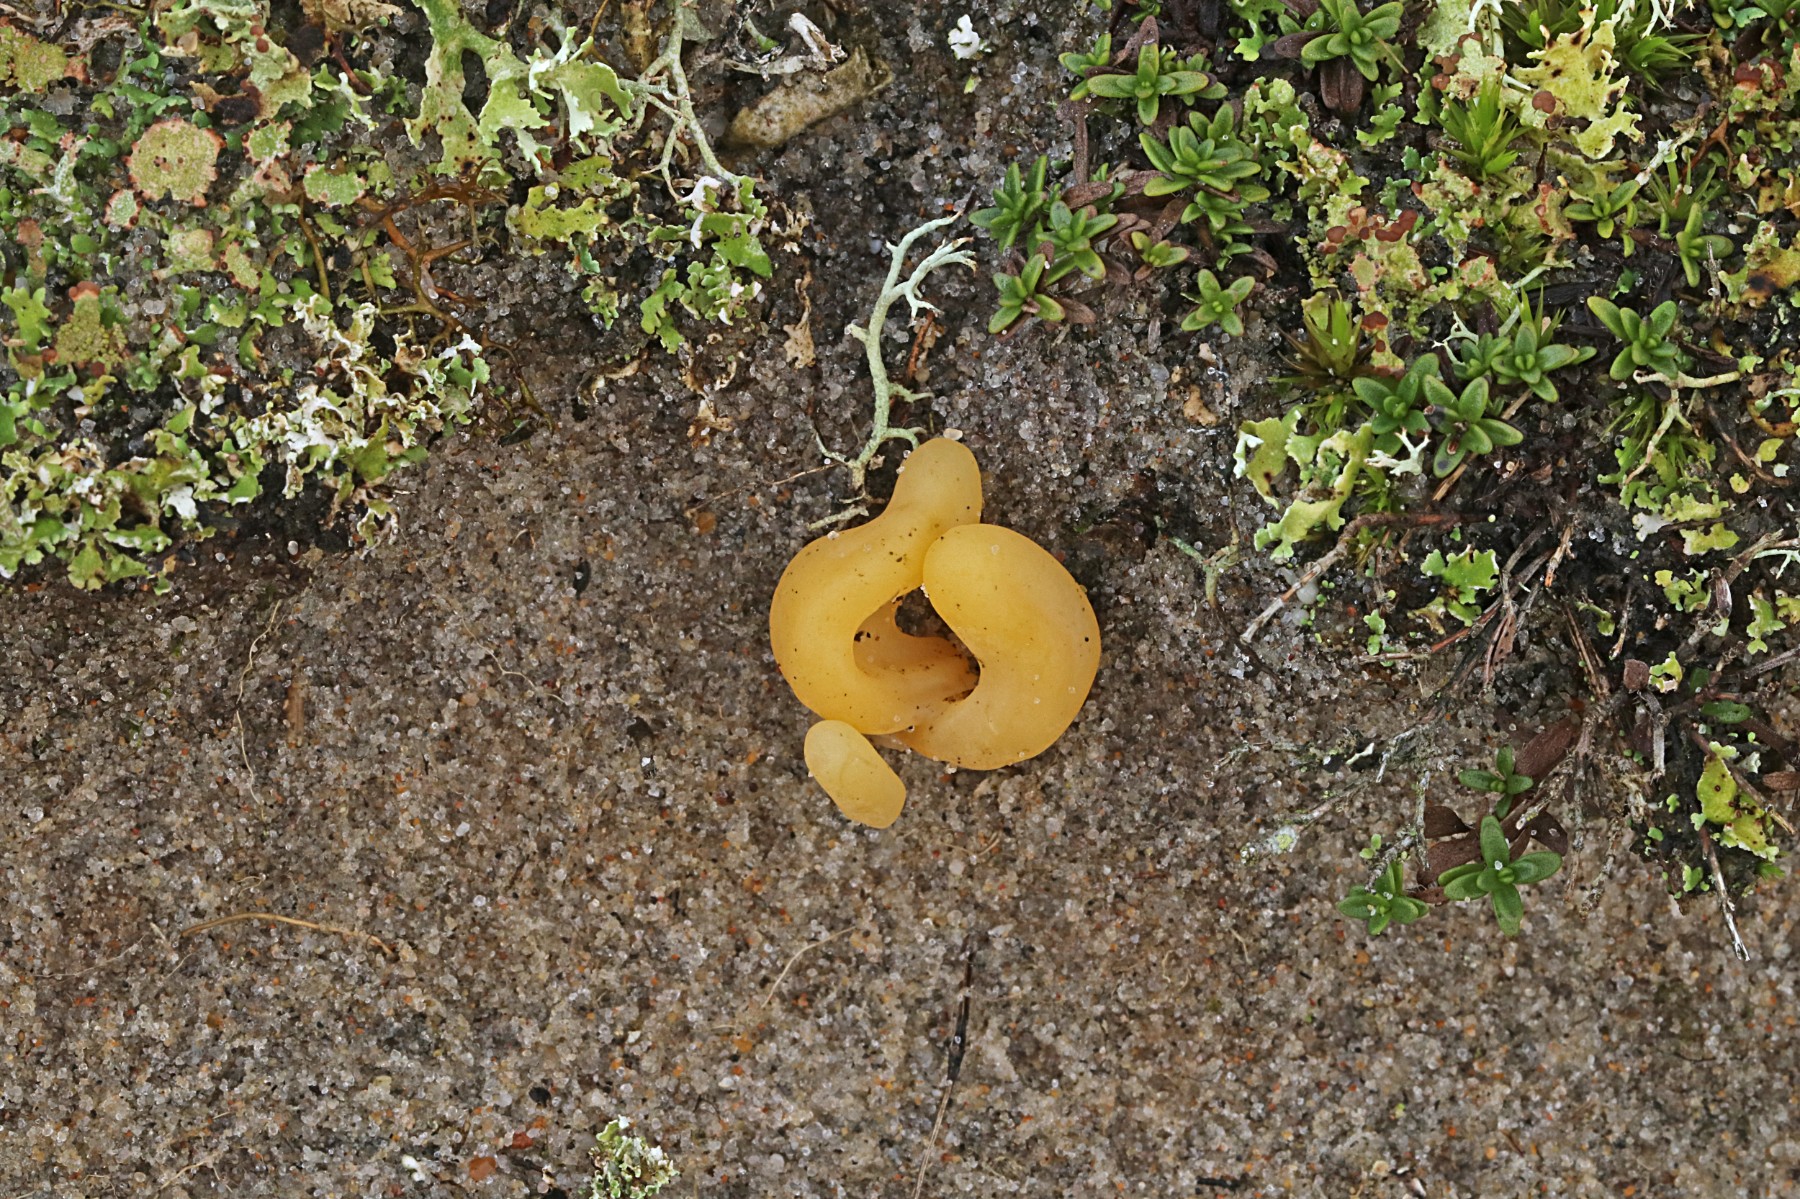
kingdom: Fungi
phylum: Basidiomycota
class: Agaricomycetes
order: Agaricales
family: Clavariaceae
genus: Clavaria
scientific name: Clavaria argillacea
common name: lerfarvet køllesvamp
